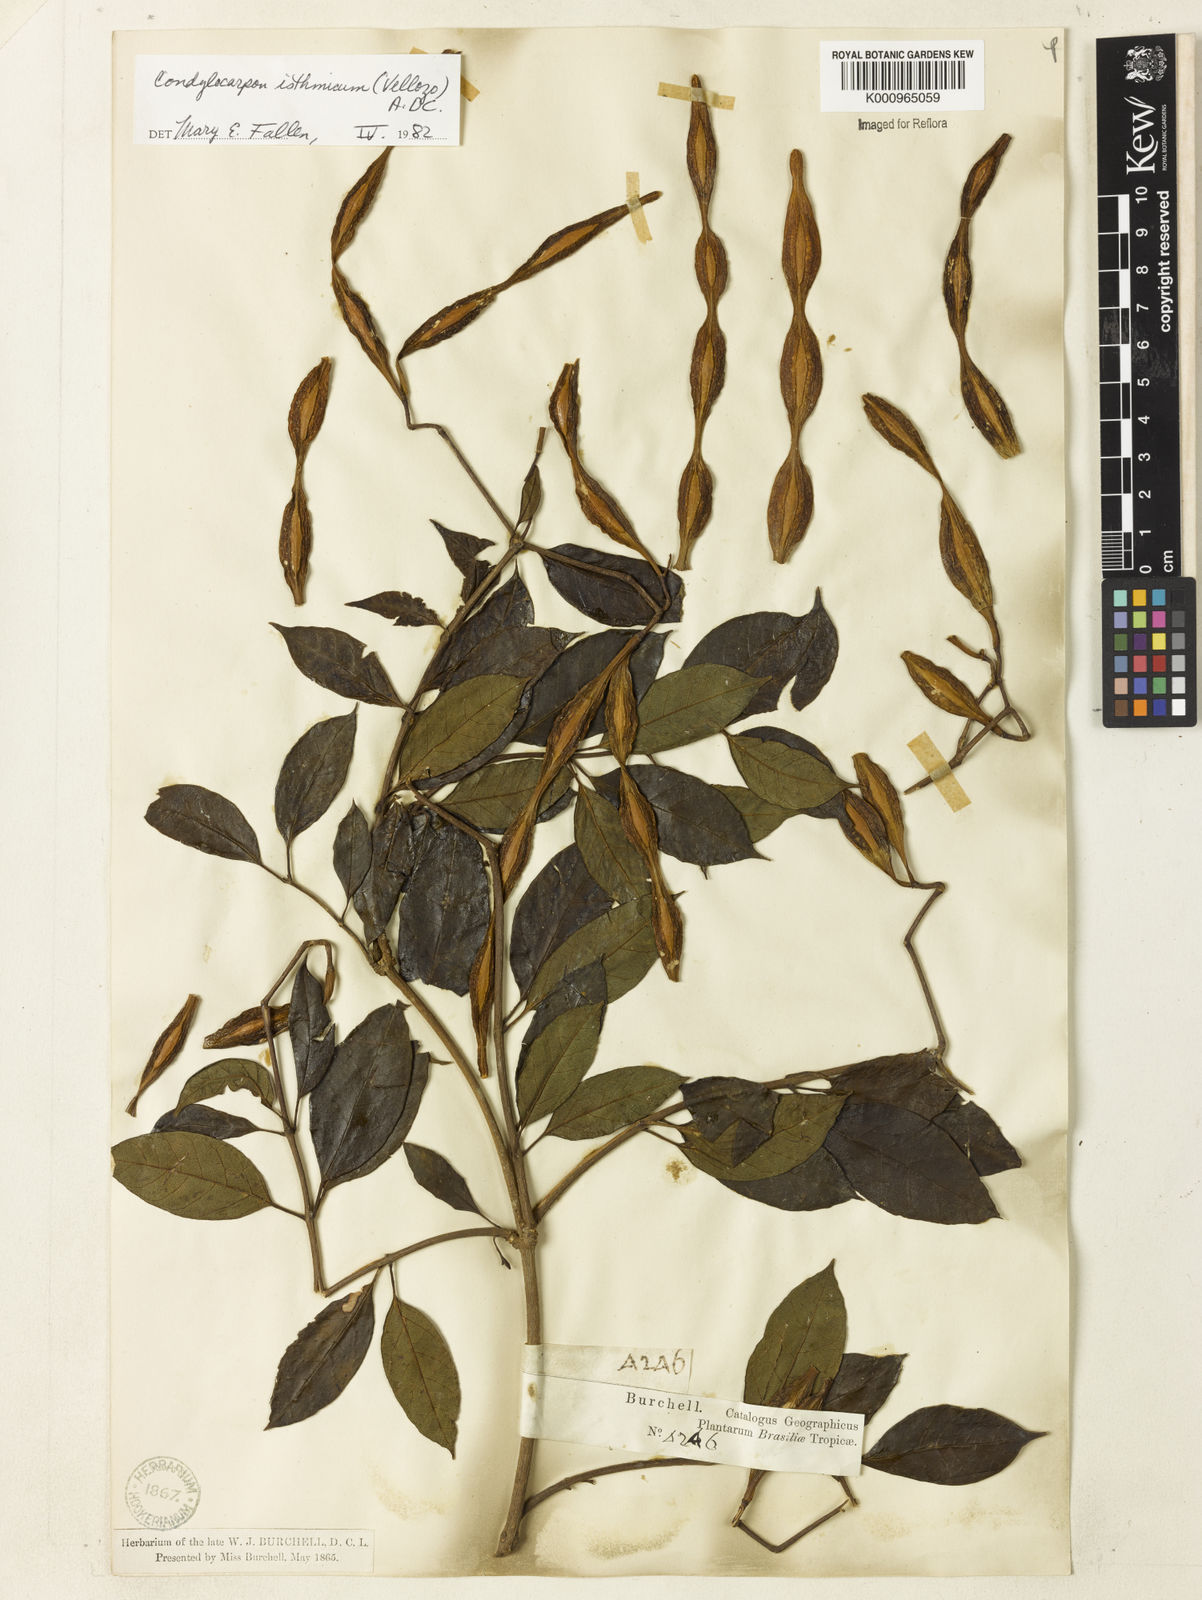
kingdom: Plantae
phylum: Tracheophyta
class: Magnoliopsida
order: Gentianales
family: Apocynaceae
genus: Condylocarpon
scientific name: Condylocarpon isthmicum
